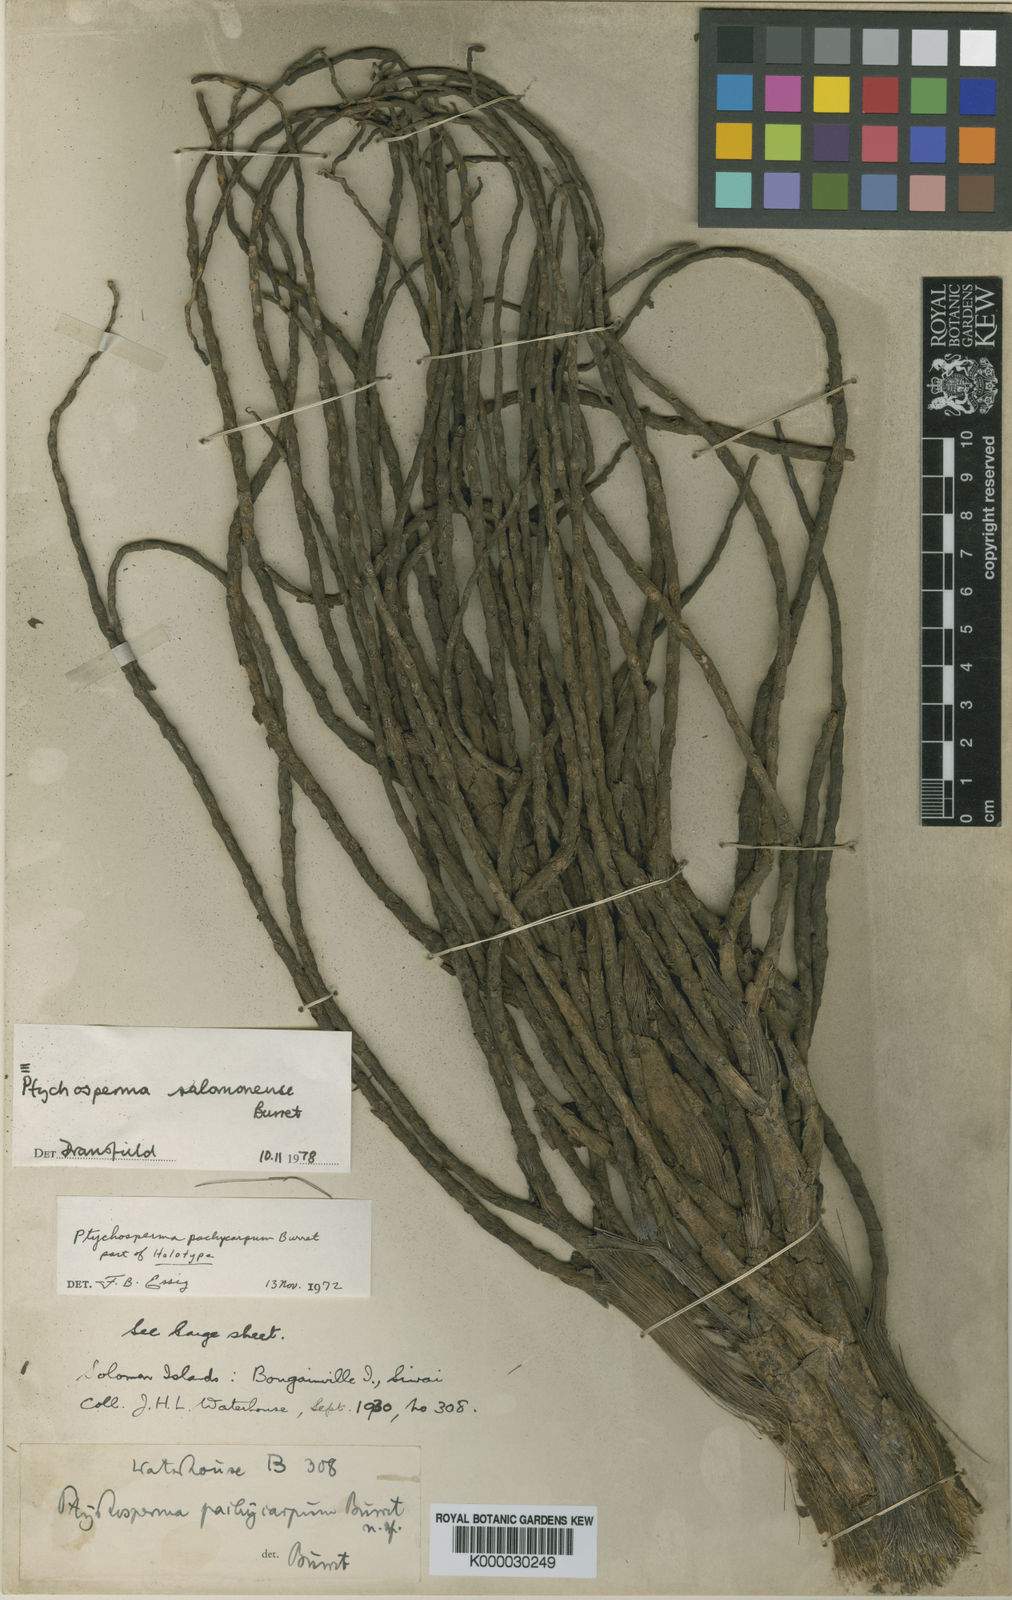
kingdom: Plantae
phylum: Tracheophyta
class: Liliopsida
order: Arecales
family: Arecaceae
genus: Ptychosperma
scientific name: Ptychosperma salomonense
